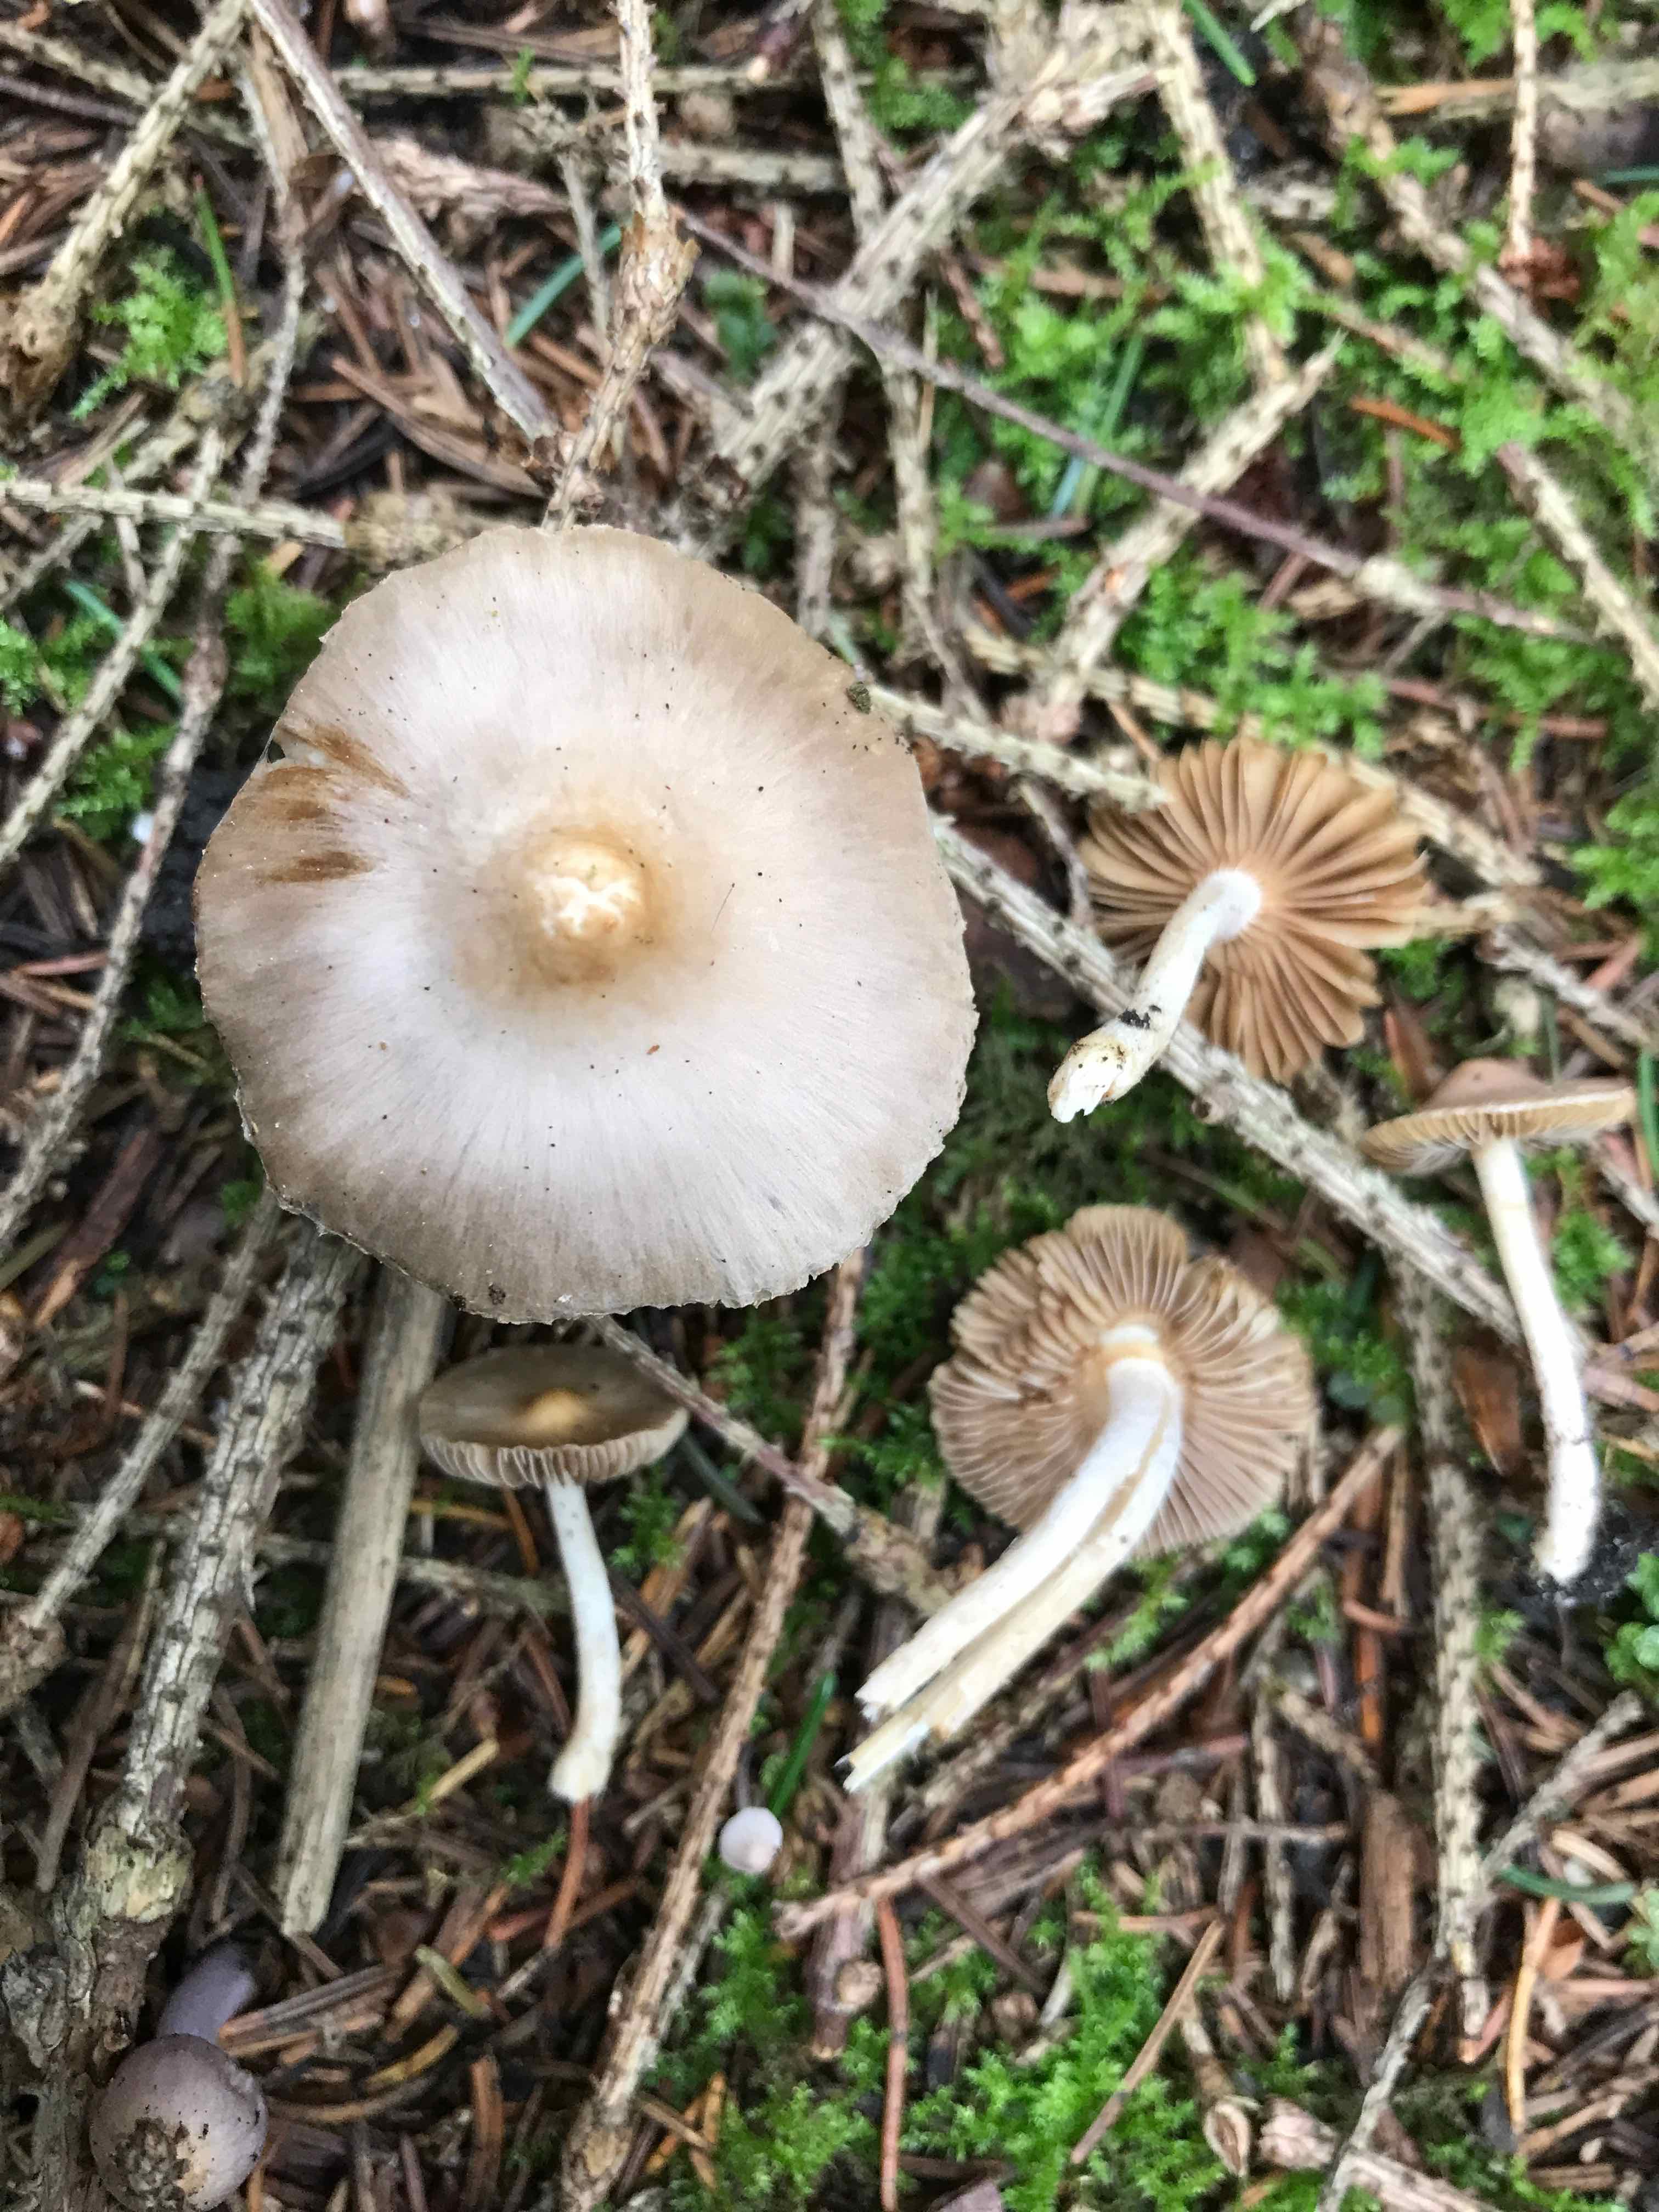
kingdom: Fungi
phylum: Basidiomycota
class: Agaricomycetes
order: Agaricales
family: Inocybaceae
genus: Inocybe
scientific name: Inocybe
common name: trævlhat
